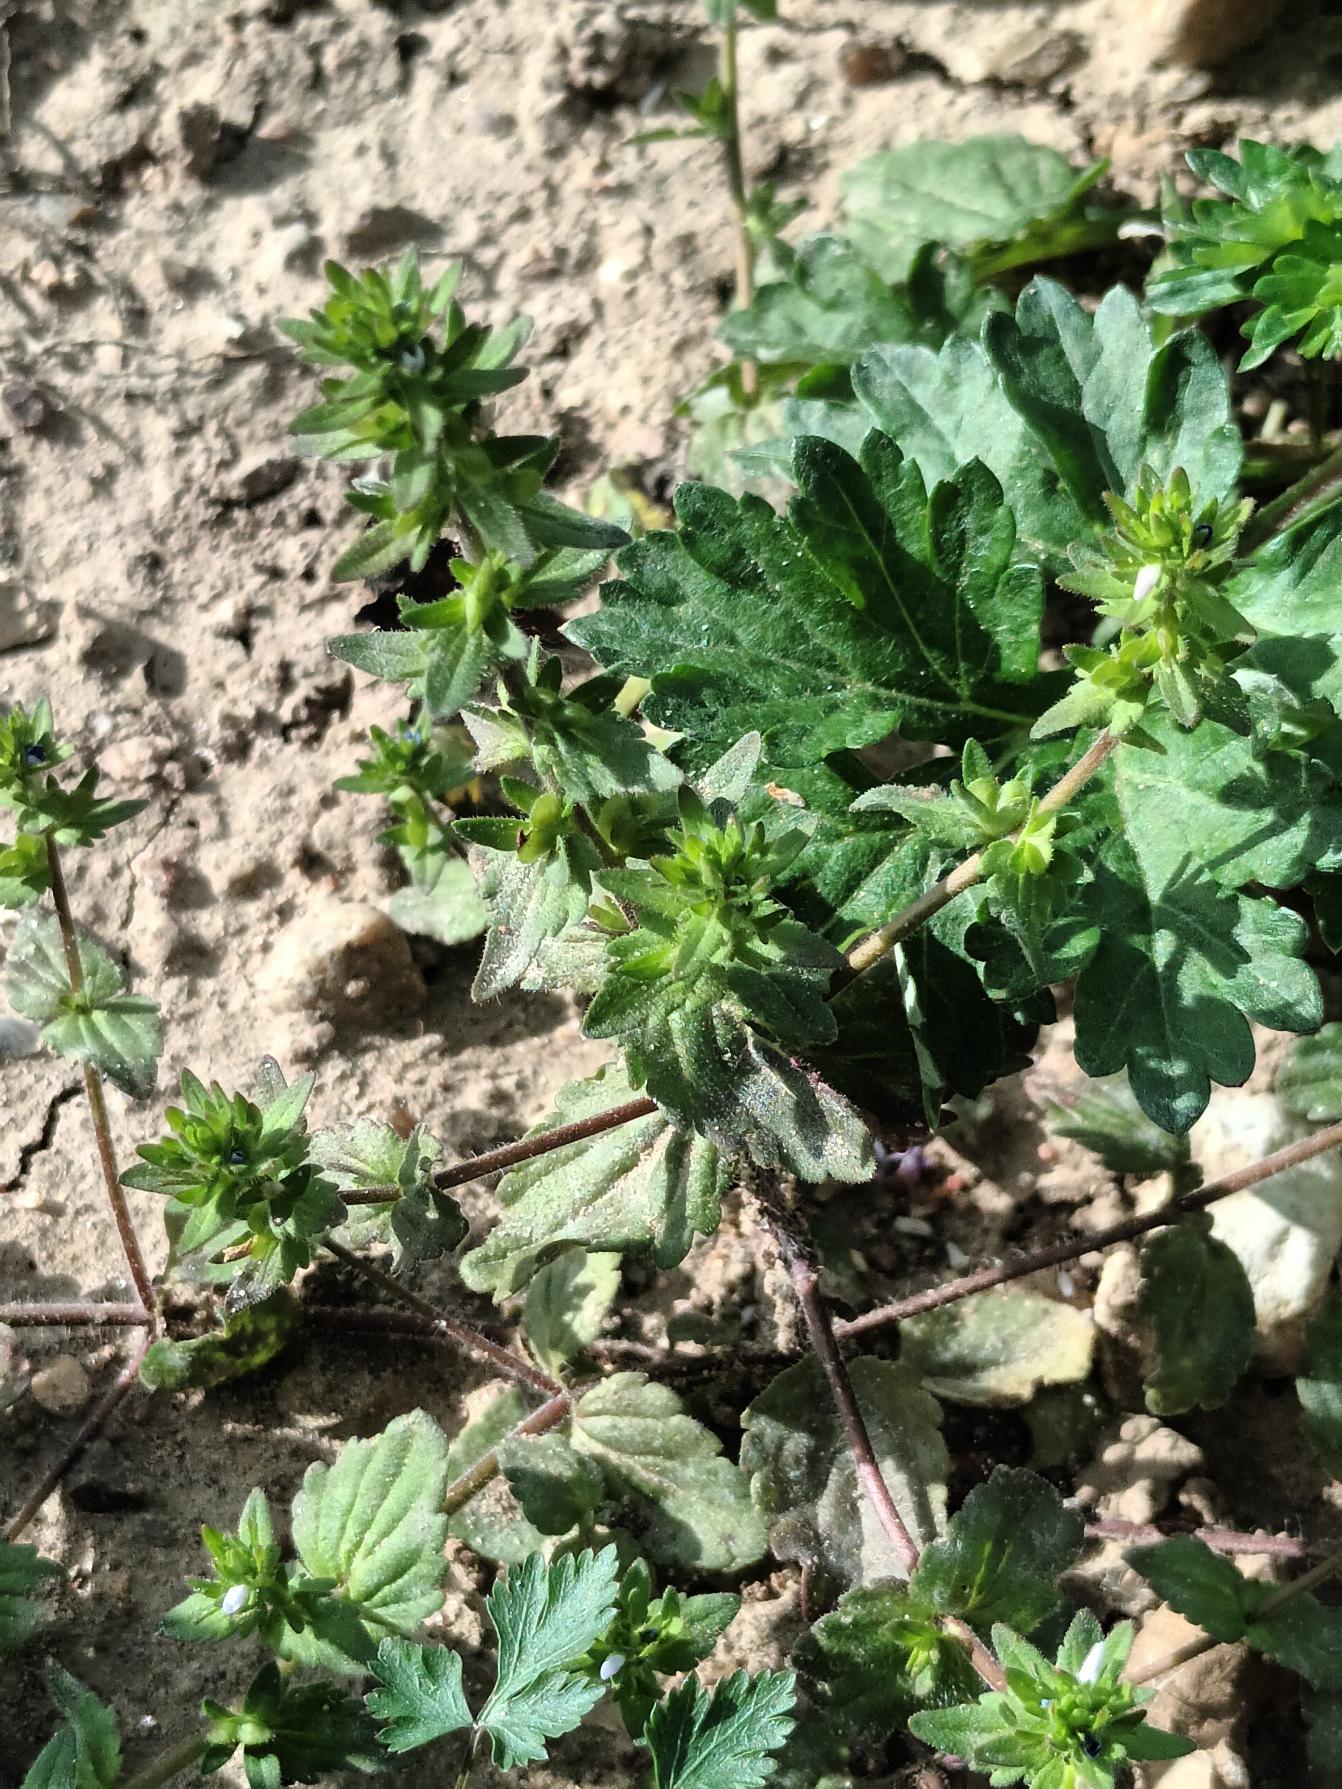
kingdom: Plantae
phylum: Tracheophyta
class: Magnoliopsida
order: Lamiales
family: Plantaginaceae
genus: Veronica
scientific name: Veronica arvensis
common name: Mark-ærenpris
